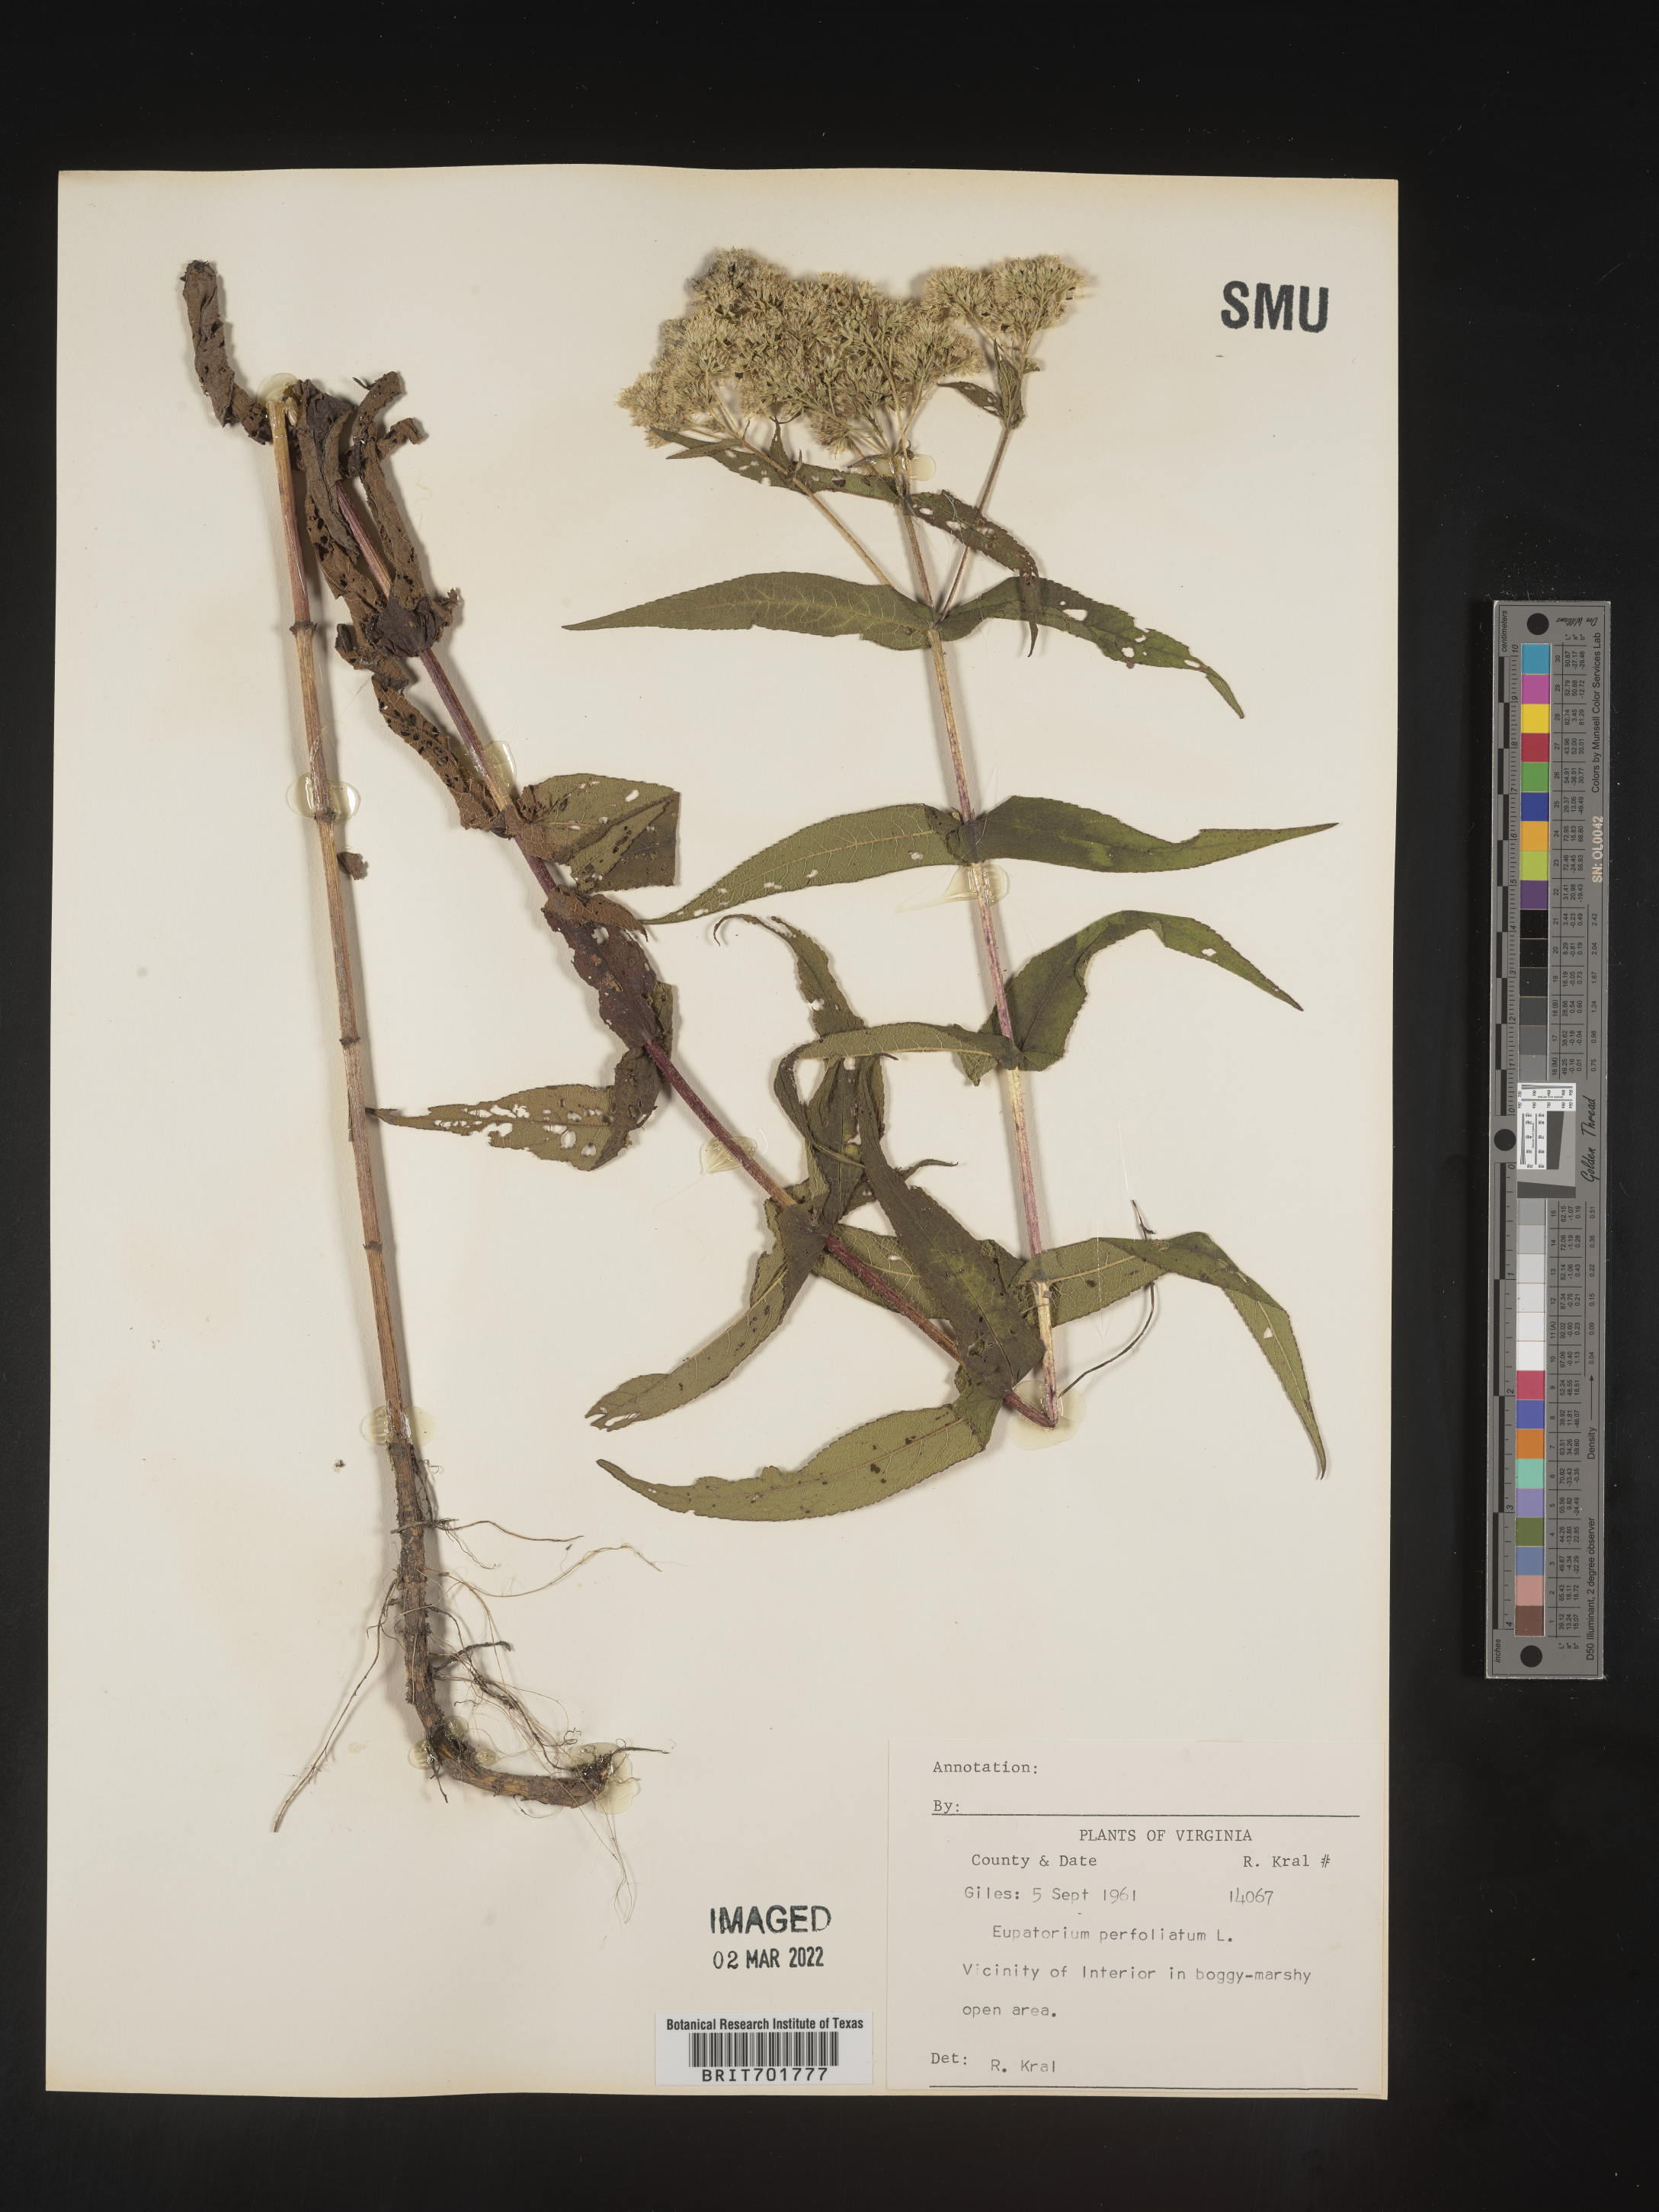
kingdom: Plantae
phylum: Tracheophyta
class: Magnoliopsida
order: Asterales
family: Asteraceae
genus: Eupatorium
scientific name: Eupatorium perfoliatum
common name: Boneset
